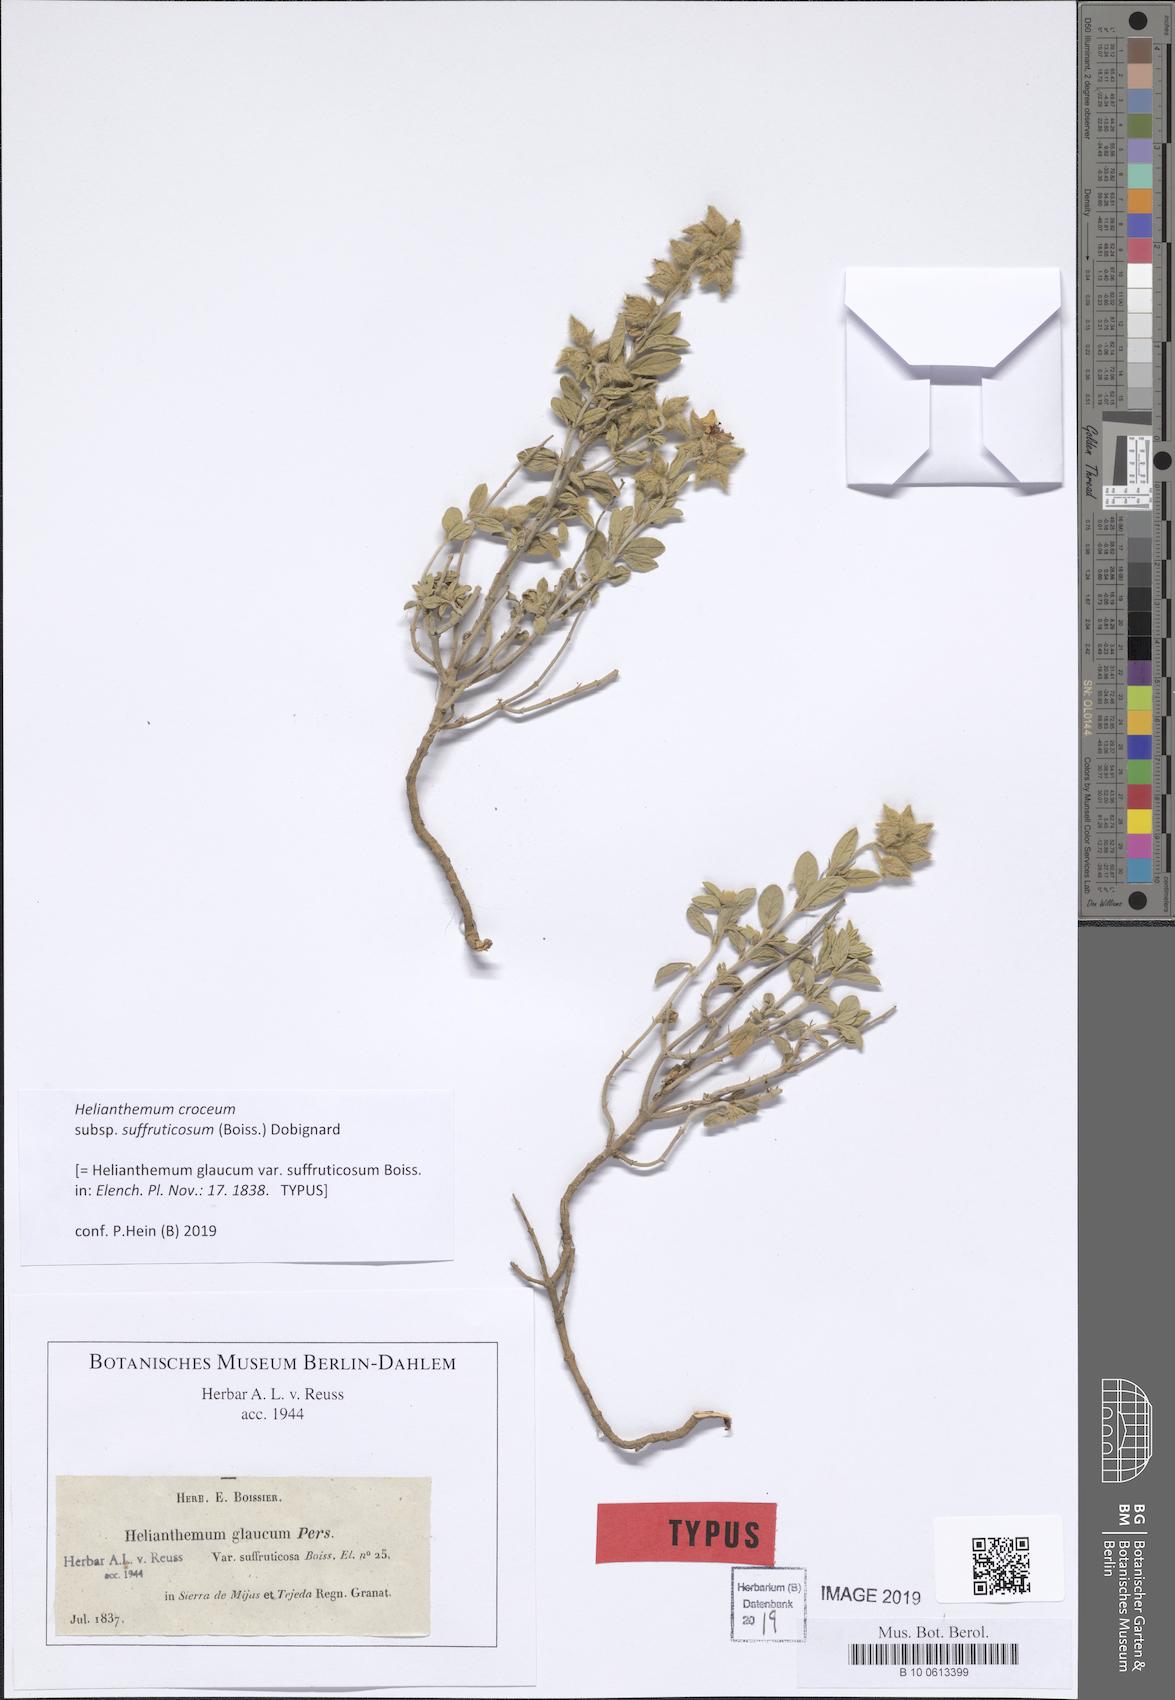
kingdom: Plantae
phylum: Tracheophyta
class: Magnoliopsida
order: Malvales
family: Cistaceae
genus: Helianthemum
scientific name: Helianthemum croceum
